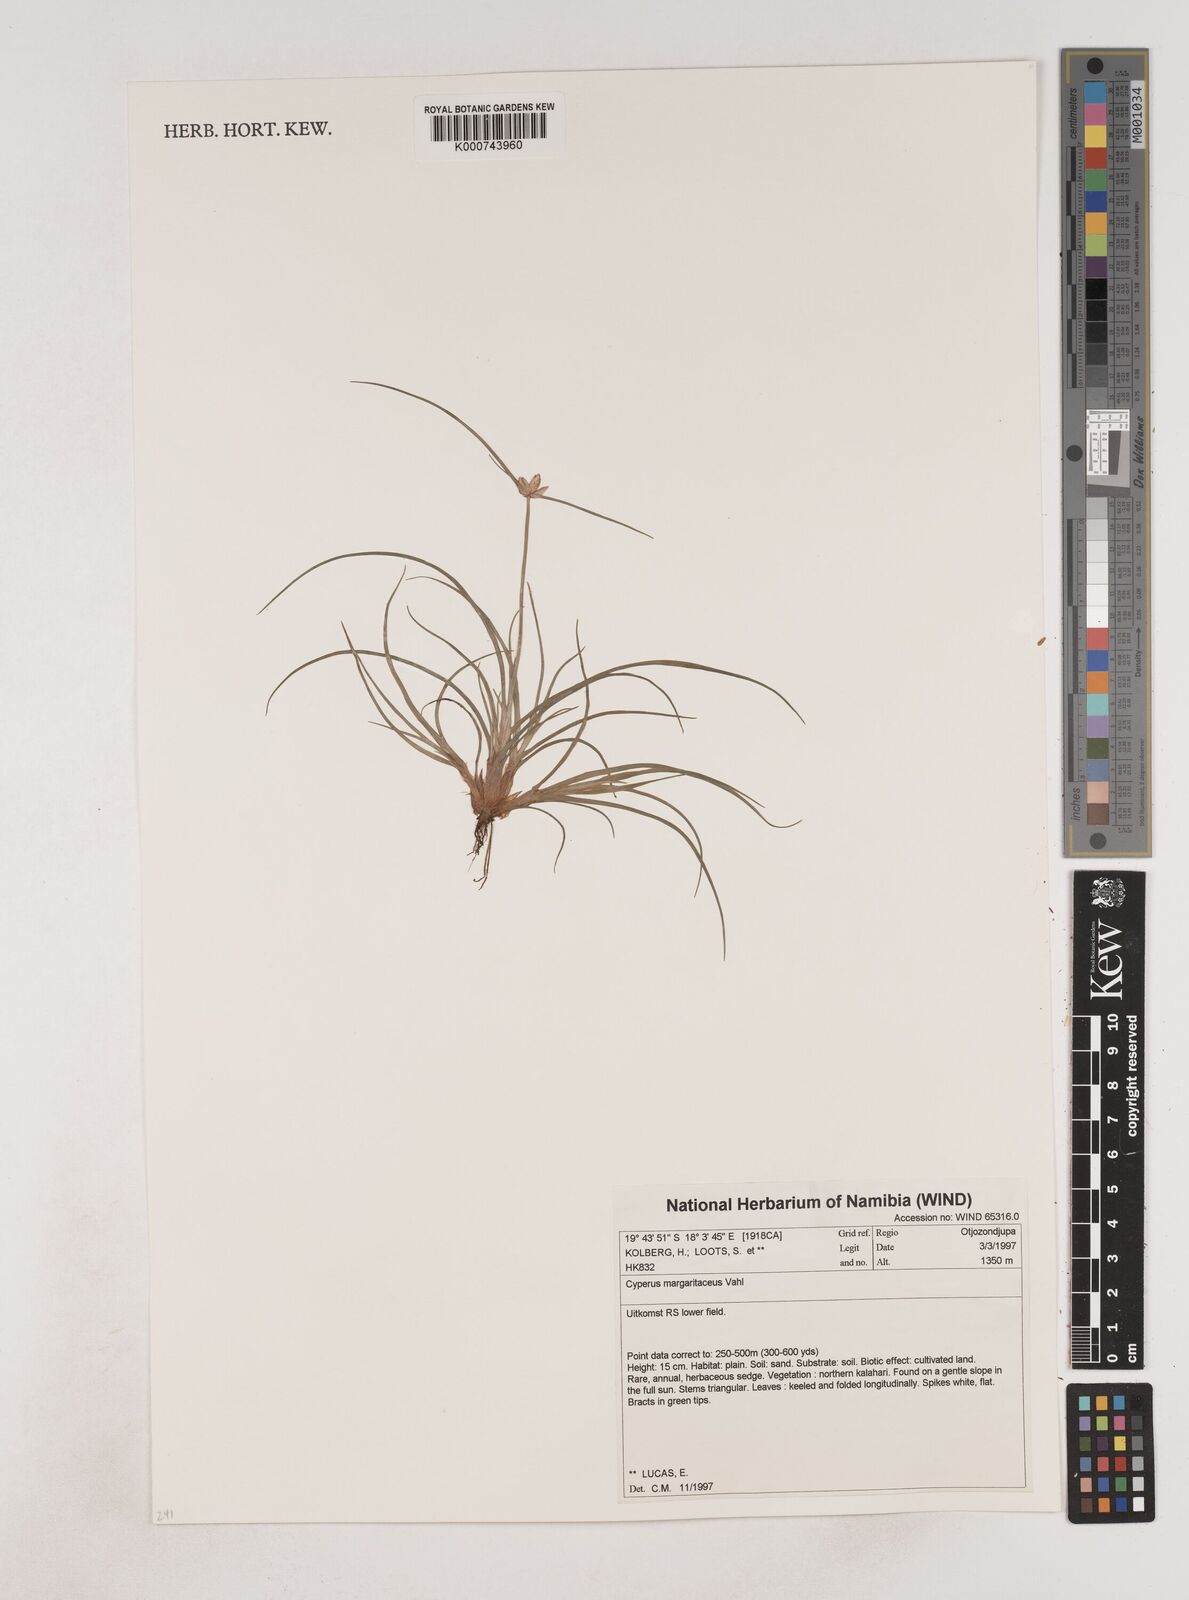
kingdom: Plantae
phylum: Tracheophyta
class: Liliopsida
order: Poales
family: Cyperaceae
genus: Cyperus
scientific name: Cyperus margaritaceus
